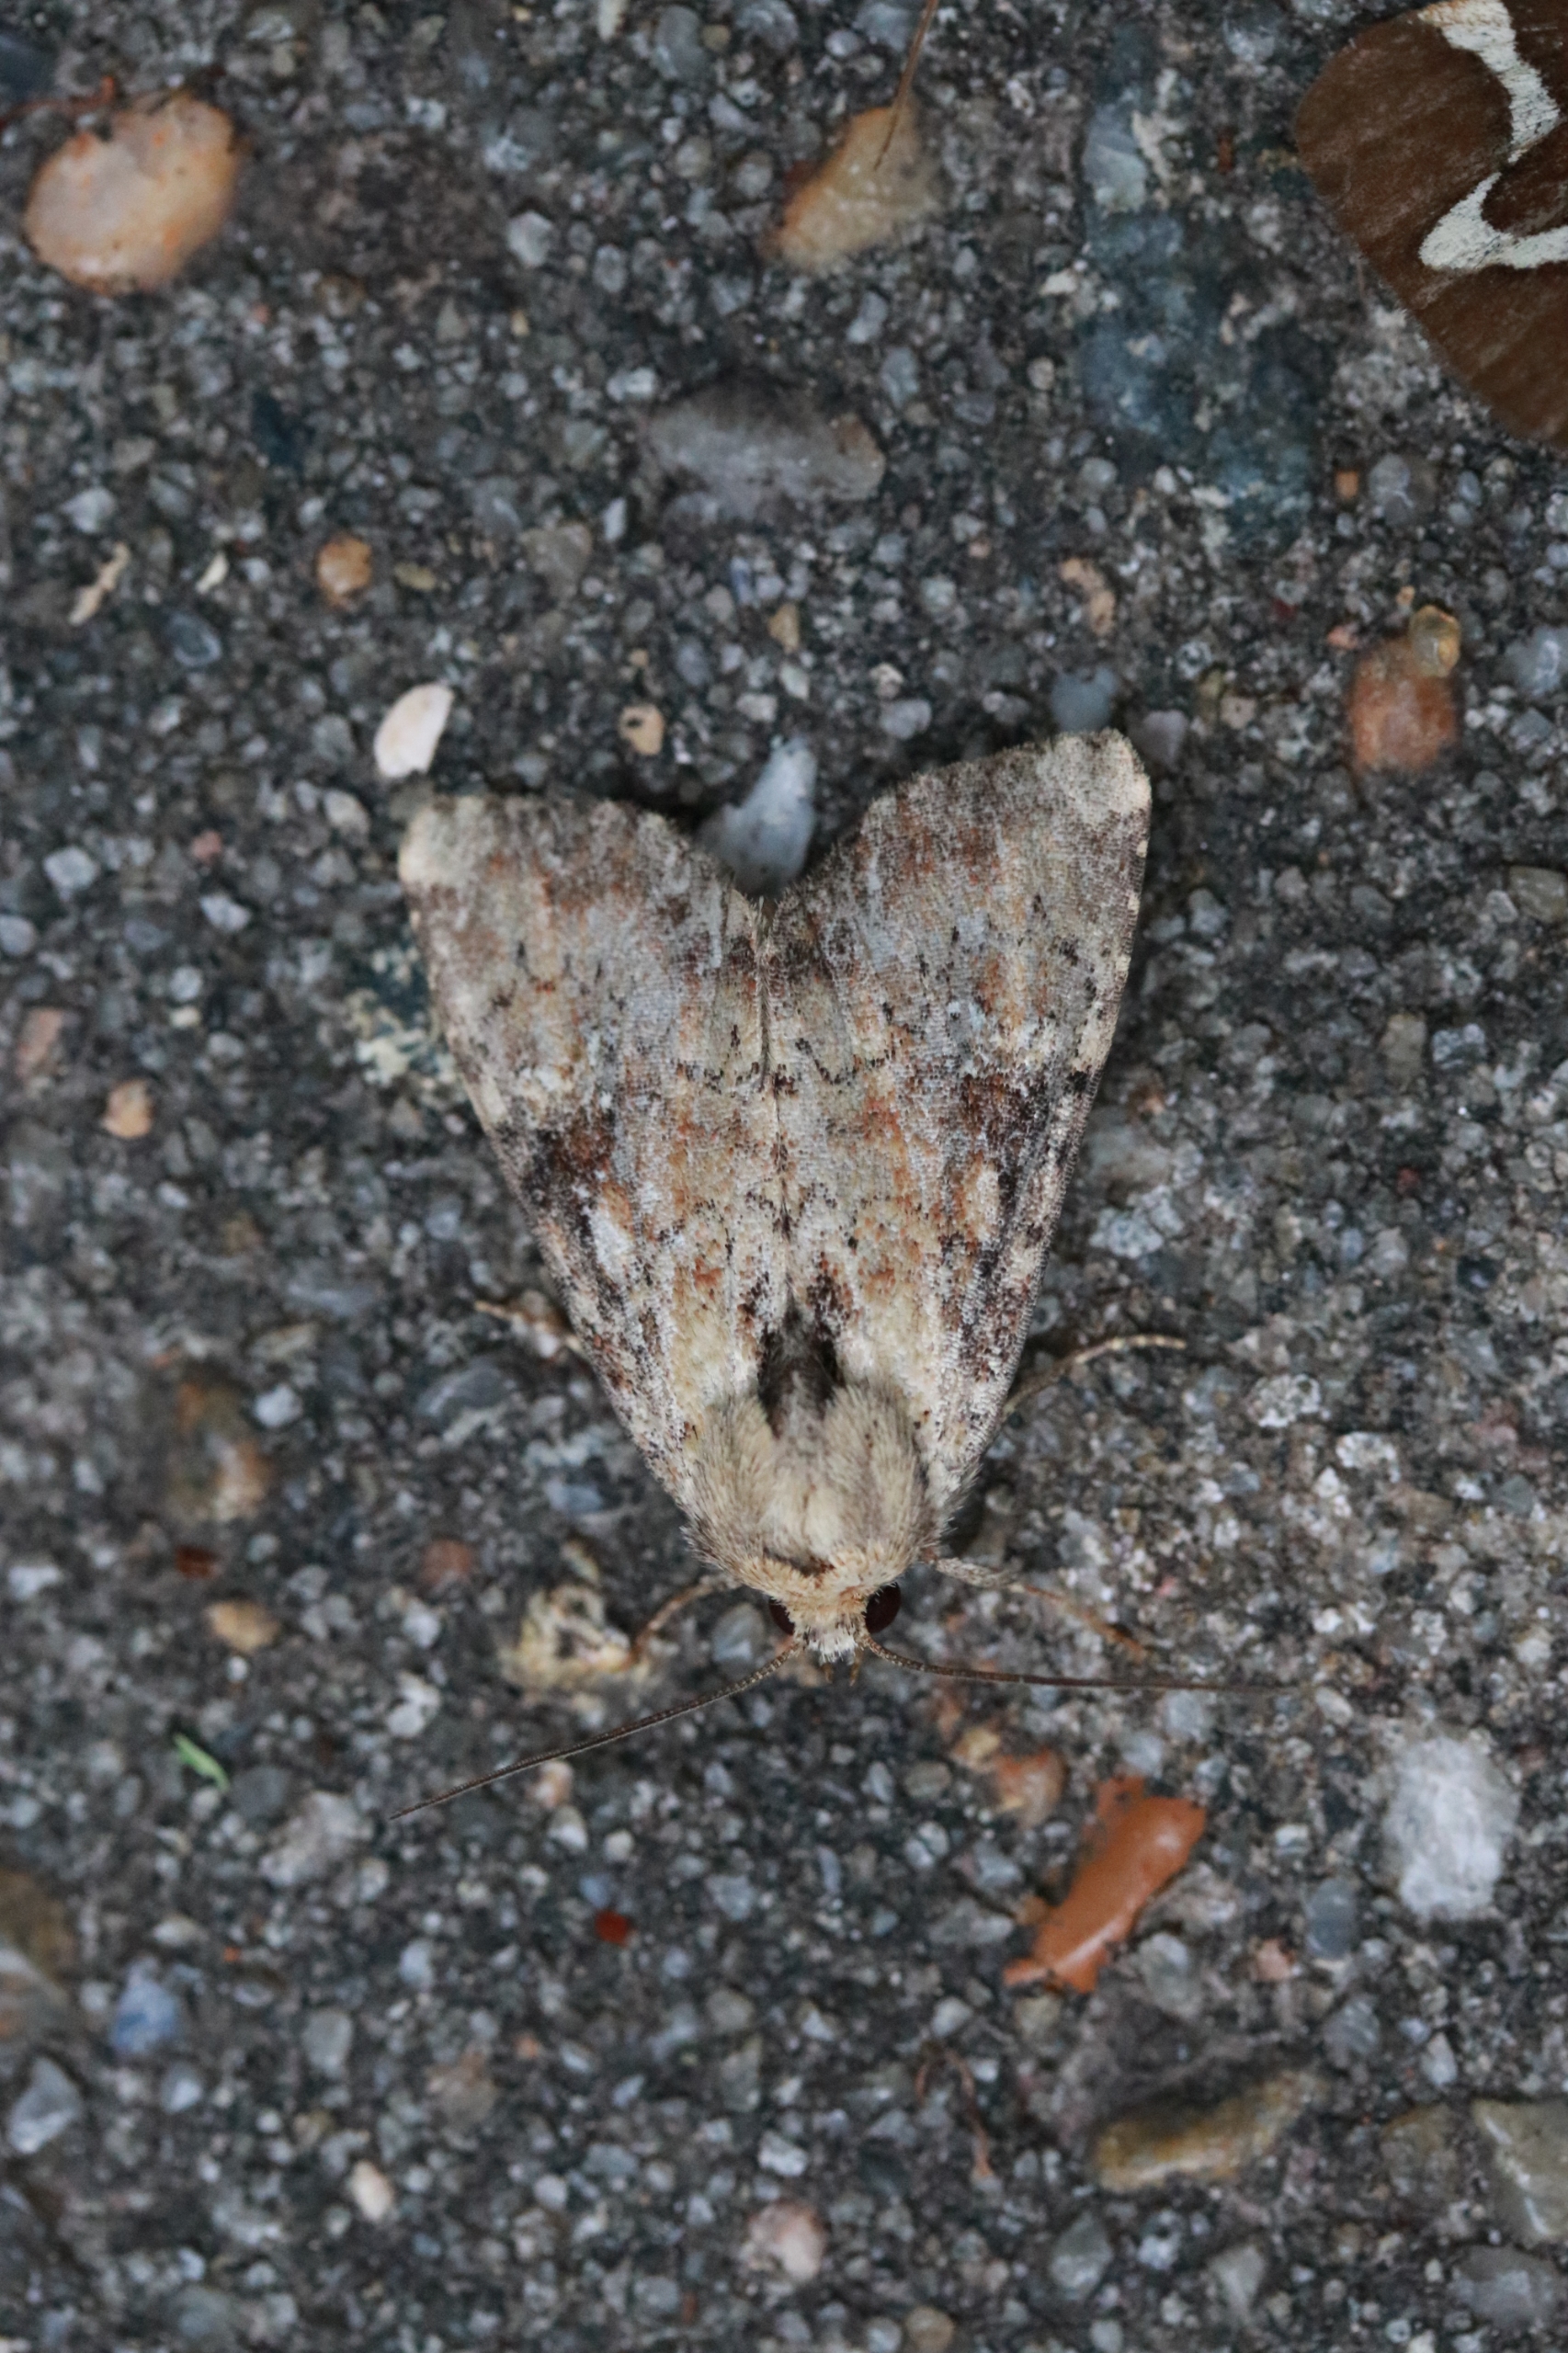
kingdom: Animalia
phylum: Arthropoda
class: Insecta
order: Lepidoptera
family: Noctuidae
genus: Loscopia
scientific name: Loscopia scolopacina
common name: Sneppe-stængelugle
